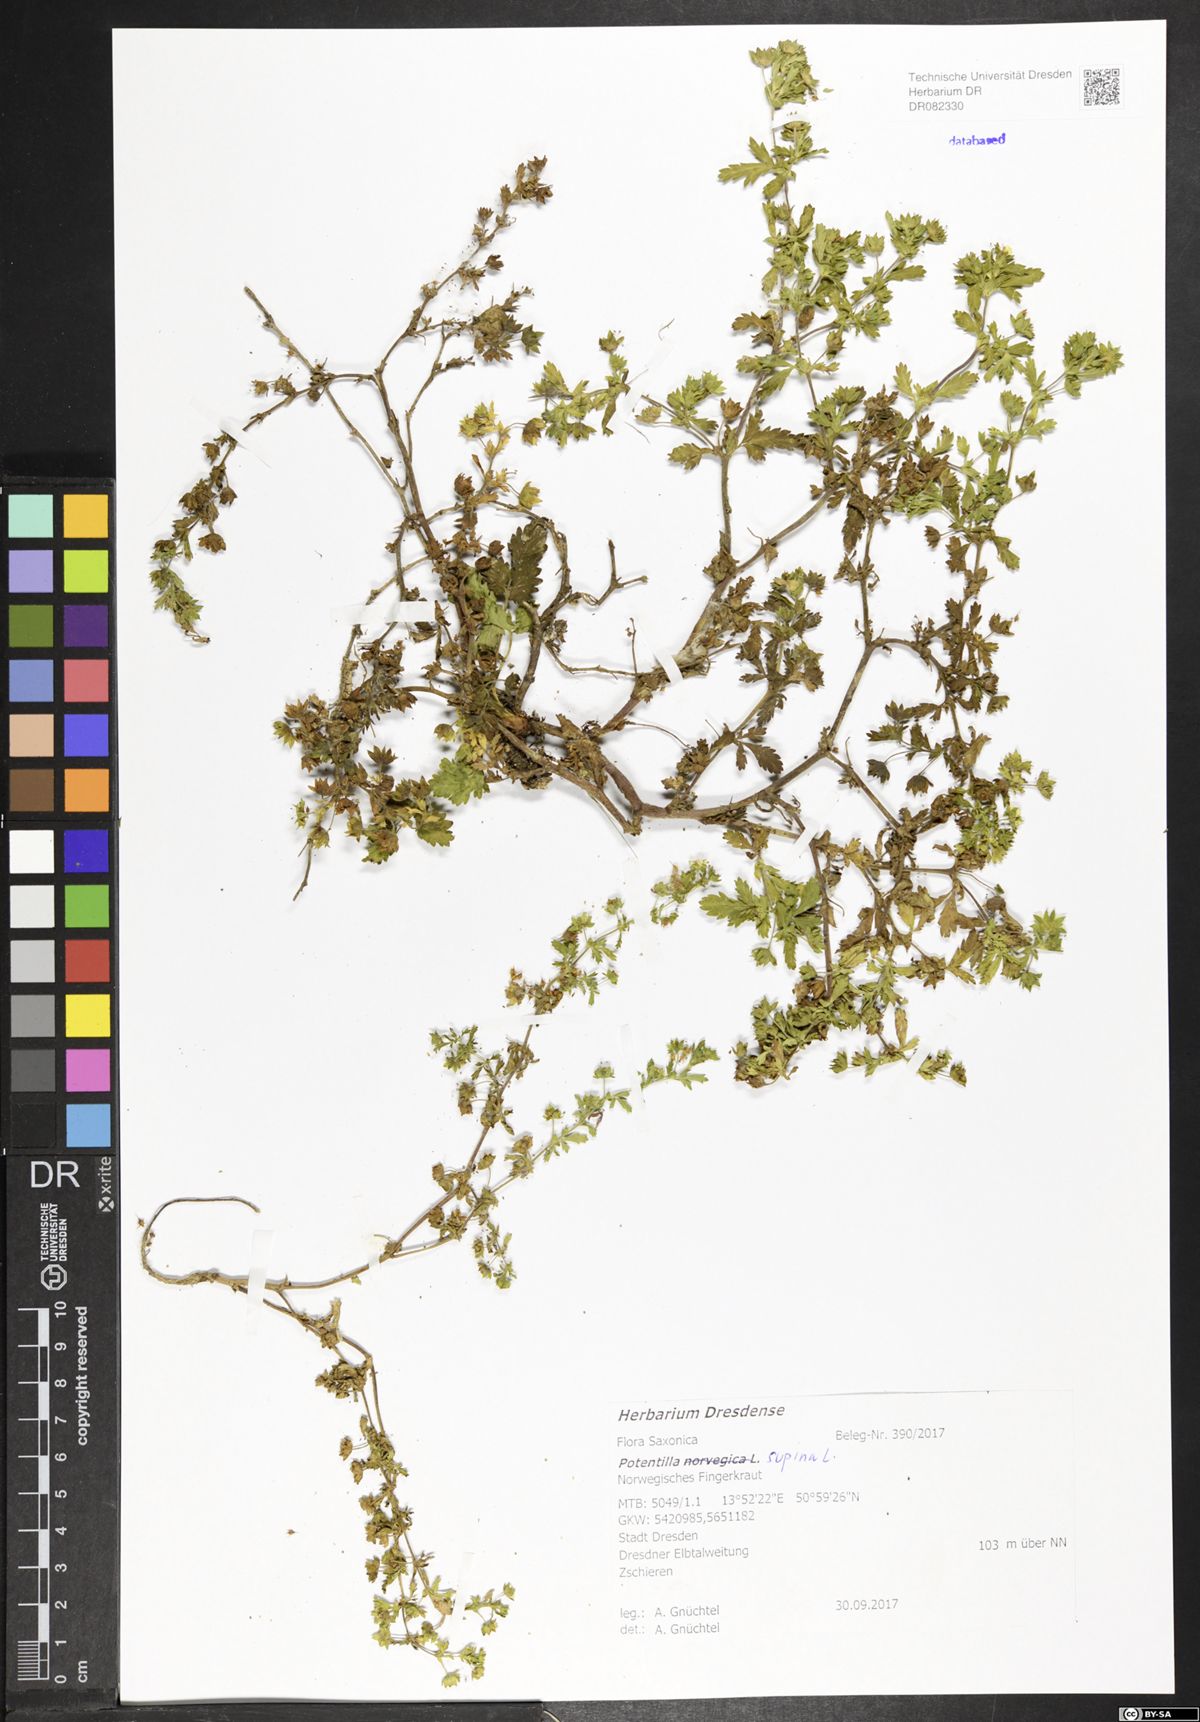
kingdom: Plantae
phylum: Tracheophyta
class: Magnoliopsida
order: Rosales
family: Rosaceae
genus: Potentilla
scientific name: Potentilla supina
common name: Prostrate cinquefoil
